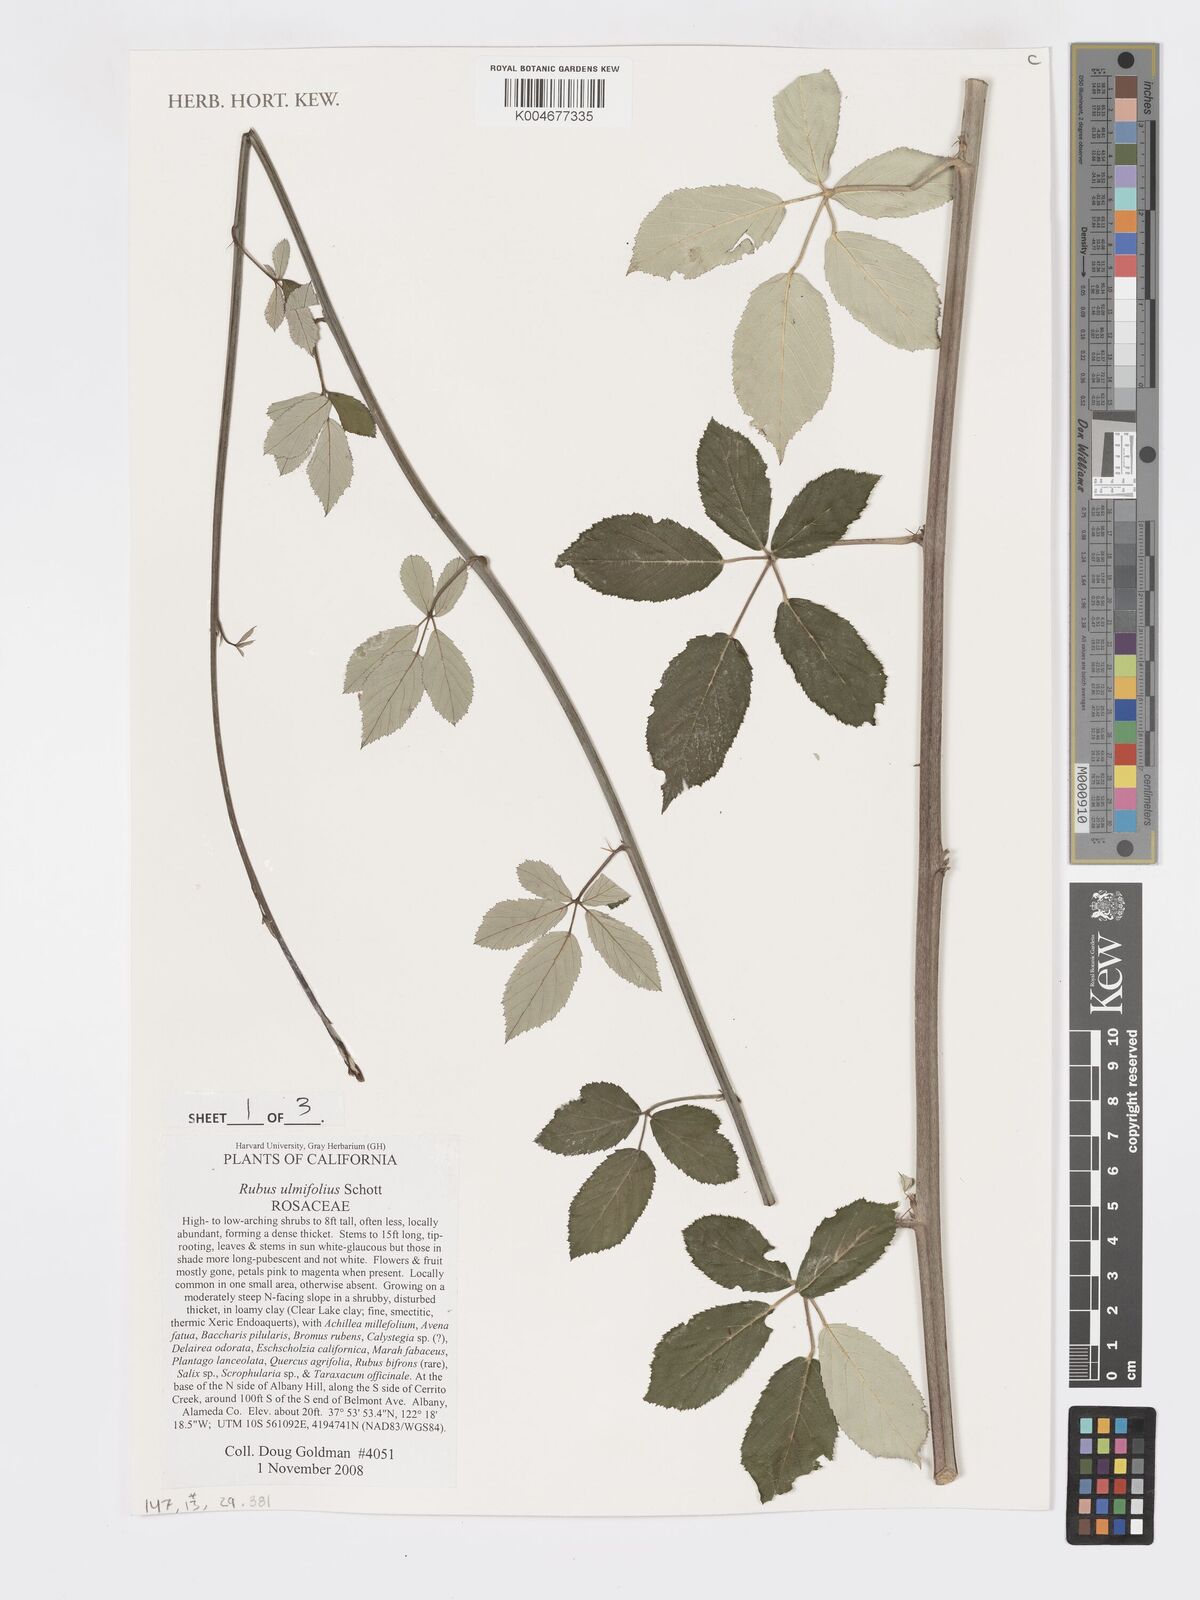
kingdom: Plantae
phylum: Tracheophyta
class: Magnoliopsida
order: Rosales
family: Rosaceae
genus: Rubus
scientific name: Rubus
